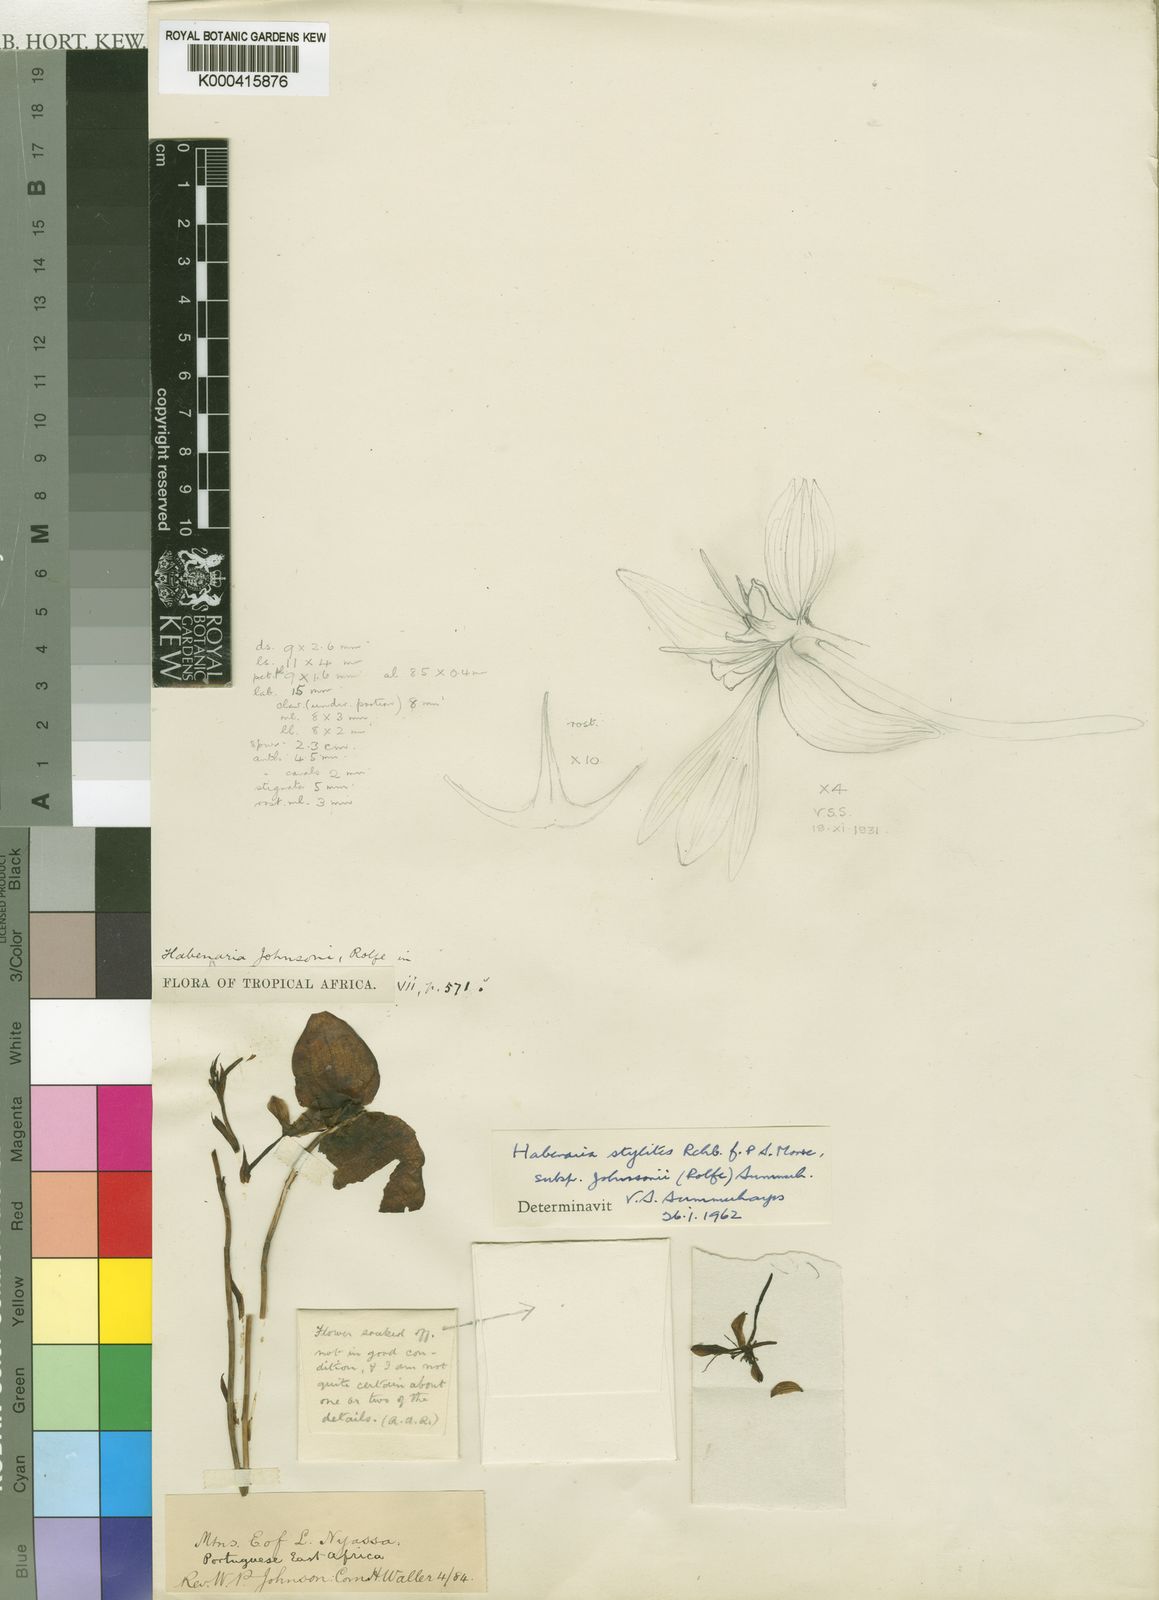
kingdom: Plantae
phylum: Tracheophyta
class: Liliopsida
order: Asparagales
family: Orchidaceae
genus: Habenaria
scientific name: Habenaria stylites
